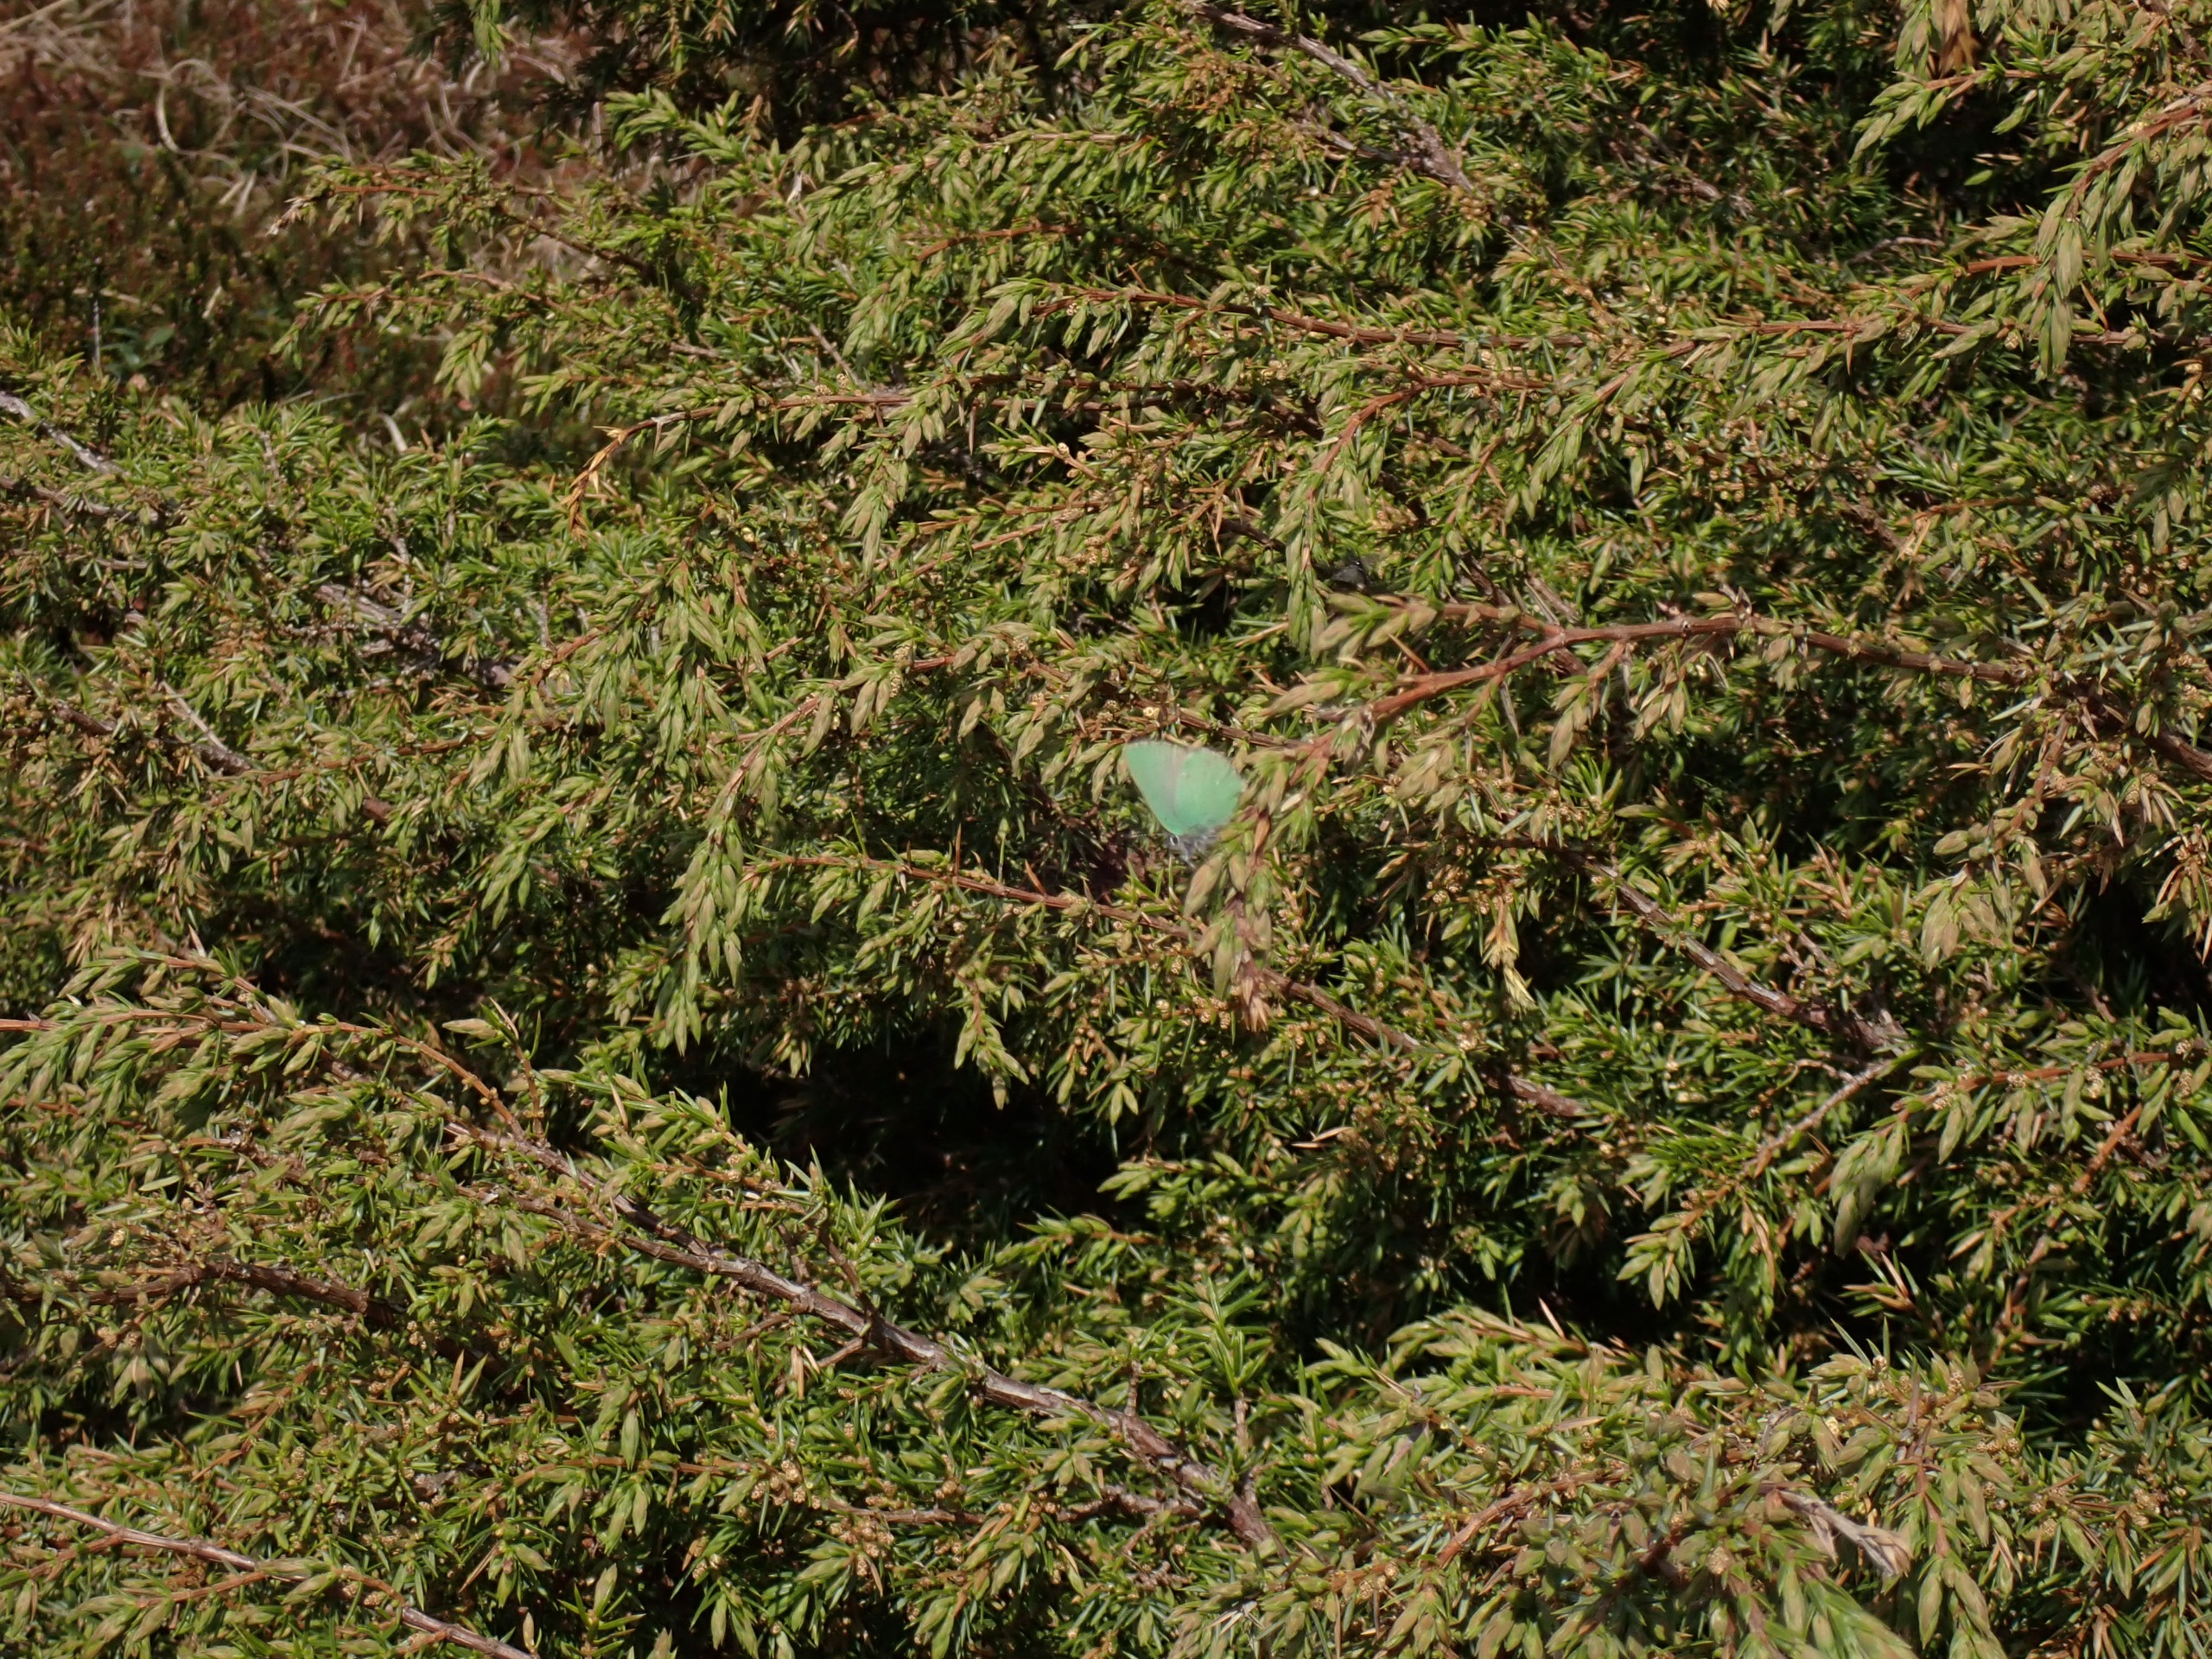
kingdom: Animalia
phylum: Arthropoda
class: Insecta
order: Lepidoptera
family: Lycaenidae
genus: Callophrys
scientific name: Callophrys rubi
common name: Grøn busksommerfugl
